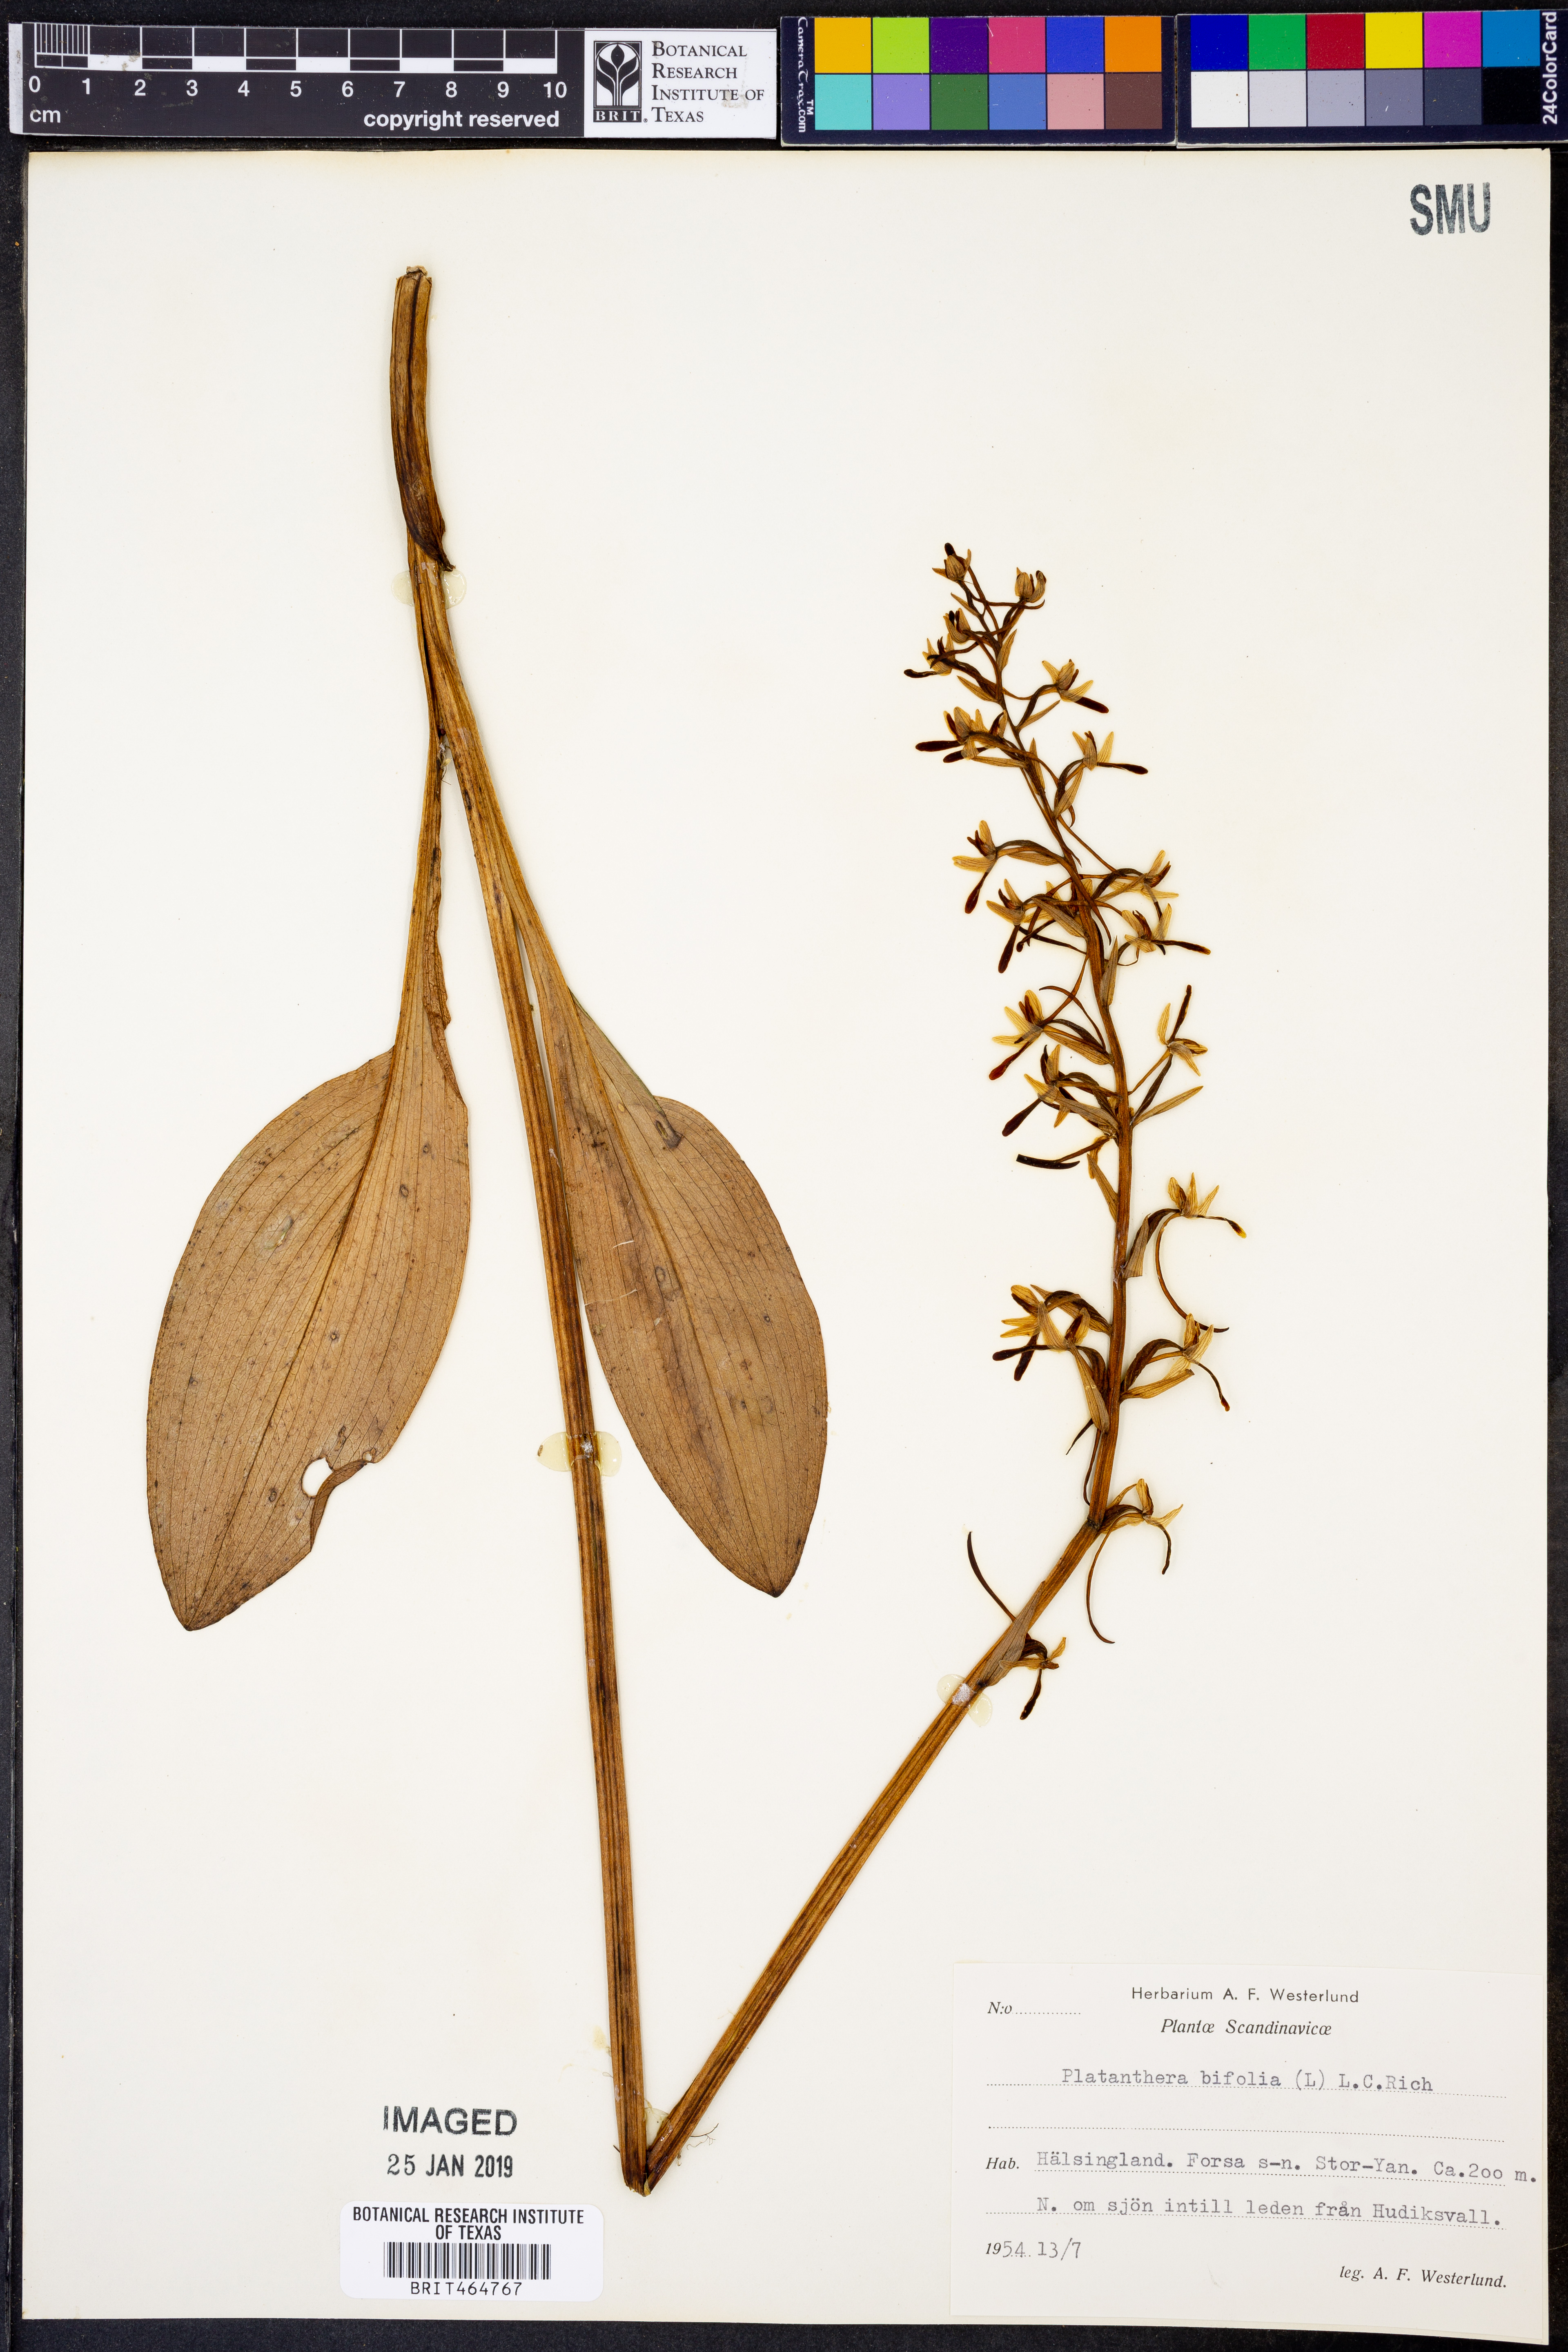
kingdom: Plantae
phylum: Tracheophyta
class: Liliopsida
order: Asparagales
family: Orchidaceae
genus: Platanthera
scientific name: Platanthera bifolia
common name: Lesser butterfly-orchid
